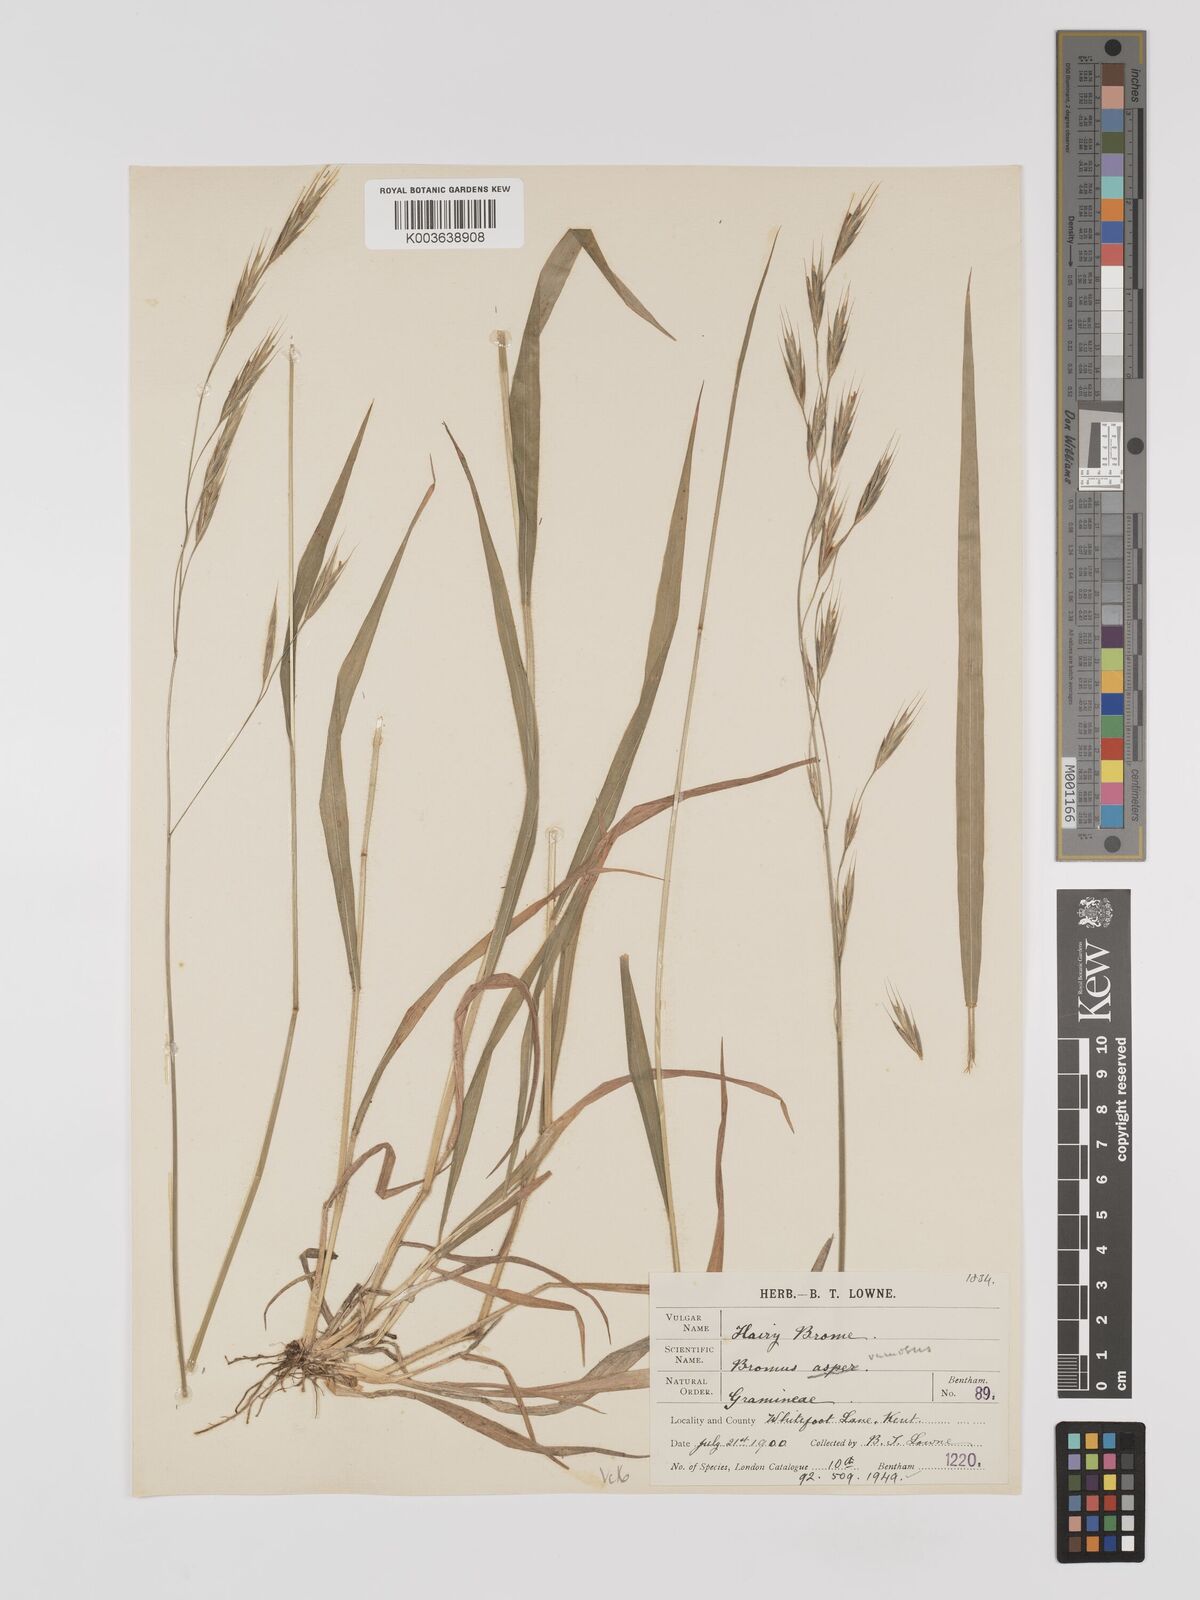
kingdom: Plantae
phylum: Tracheophyta
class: Liliopsida
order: Poales
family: Poaceae
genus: Bromus
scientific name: Bromus ramosus
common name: Hairy brome
